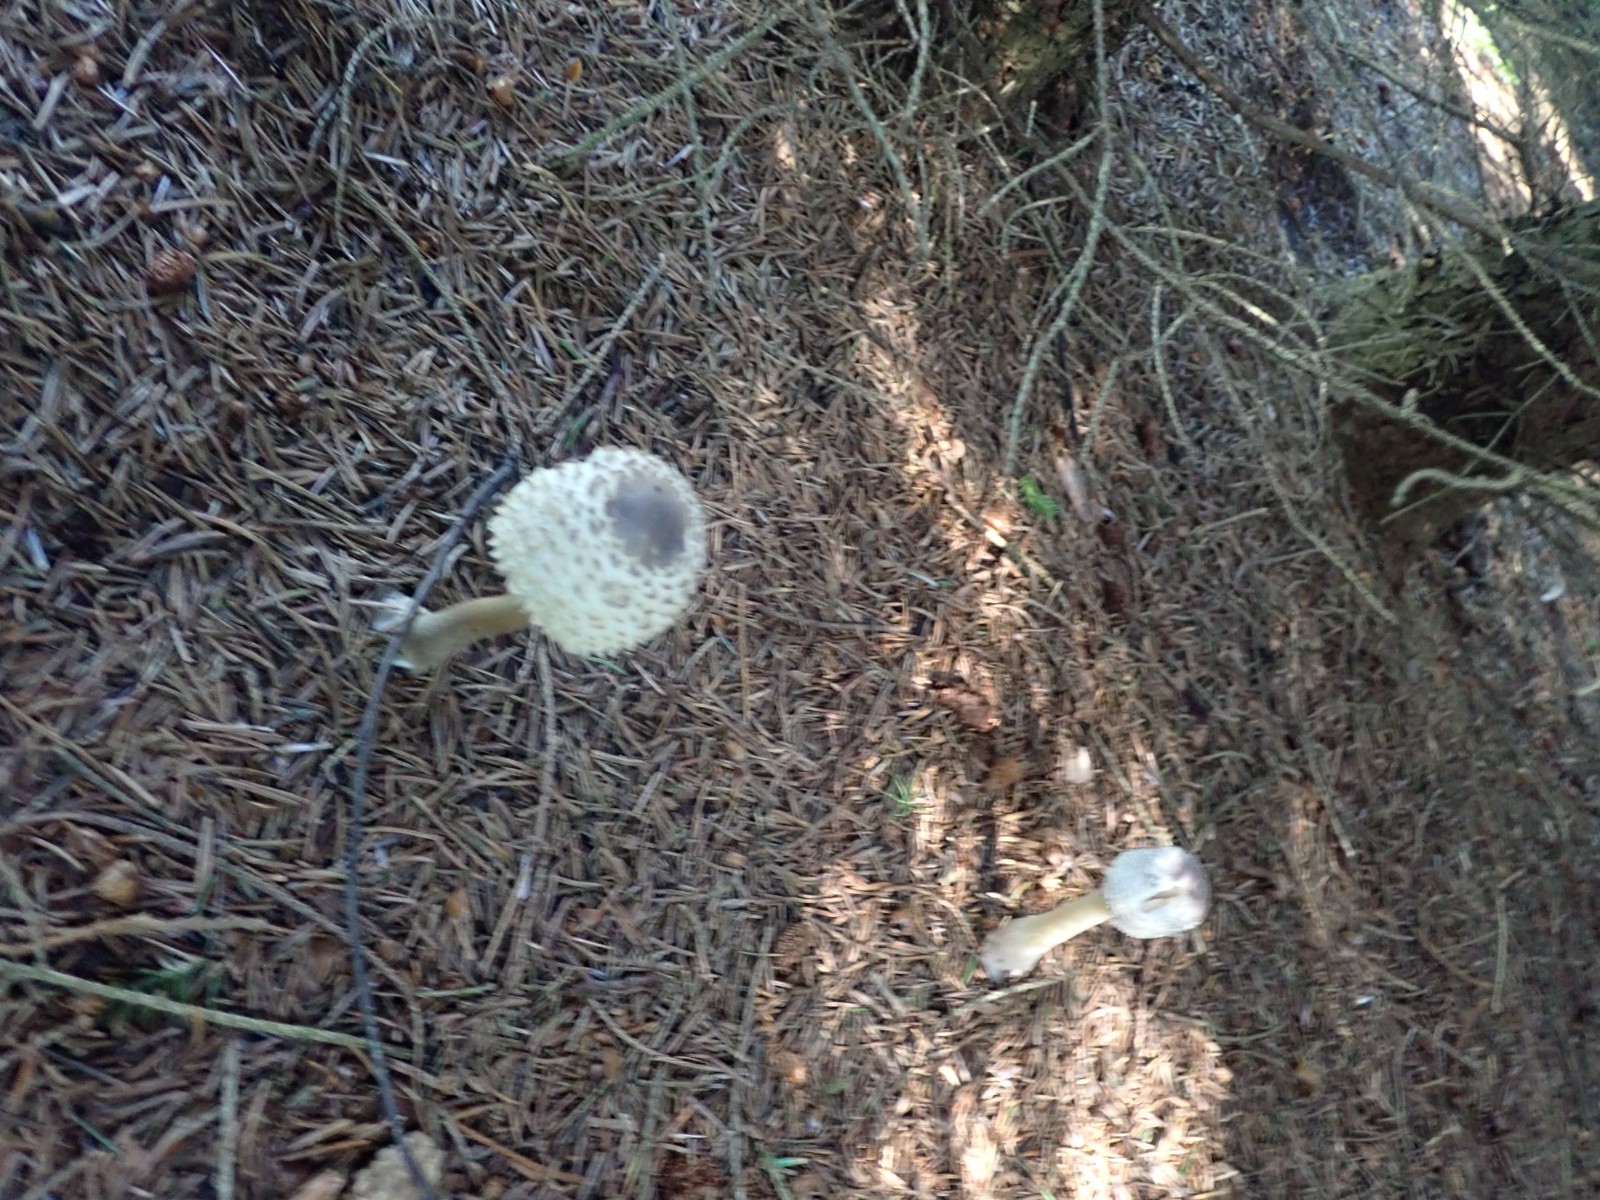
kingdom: Fungi
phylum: Basidiomycota
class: Agaricomycetes
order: Agaricales
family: Agaricaceae
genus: Leucoagaricus
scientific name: Leucoagaricus nympharum
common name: gran-silkehat
